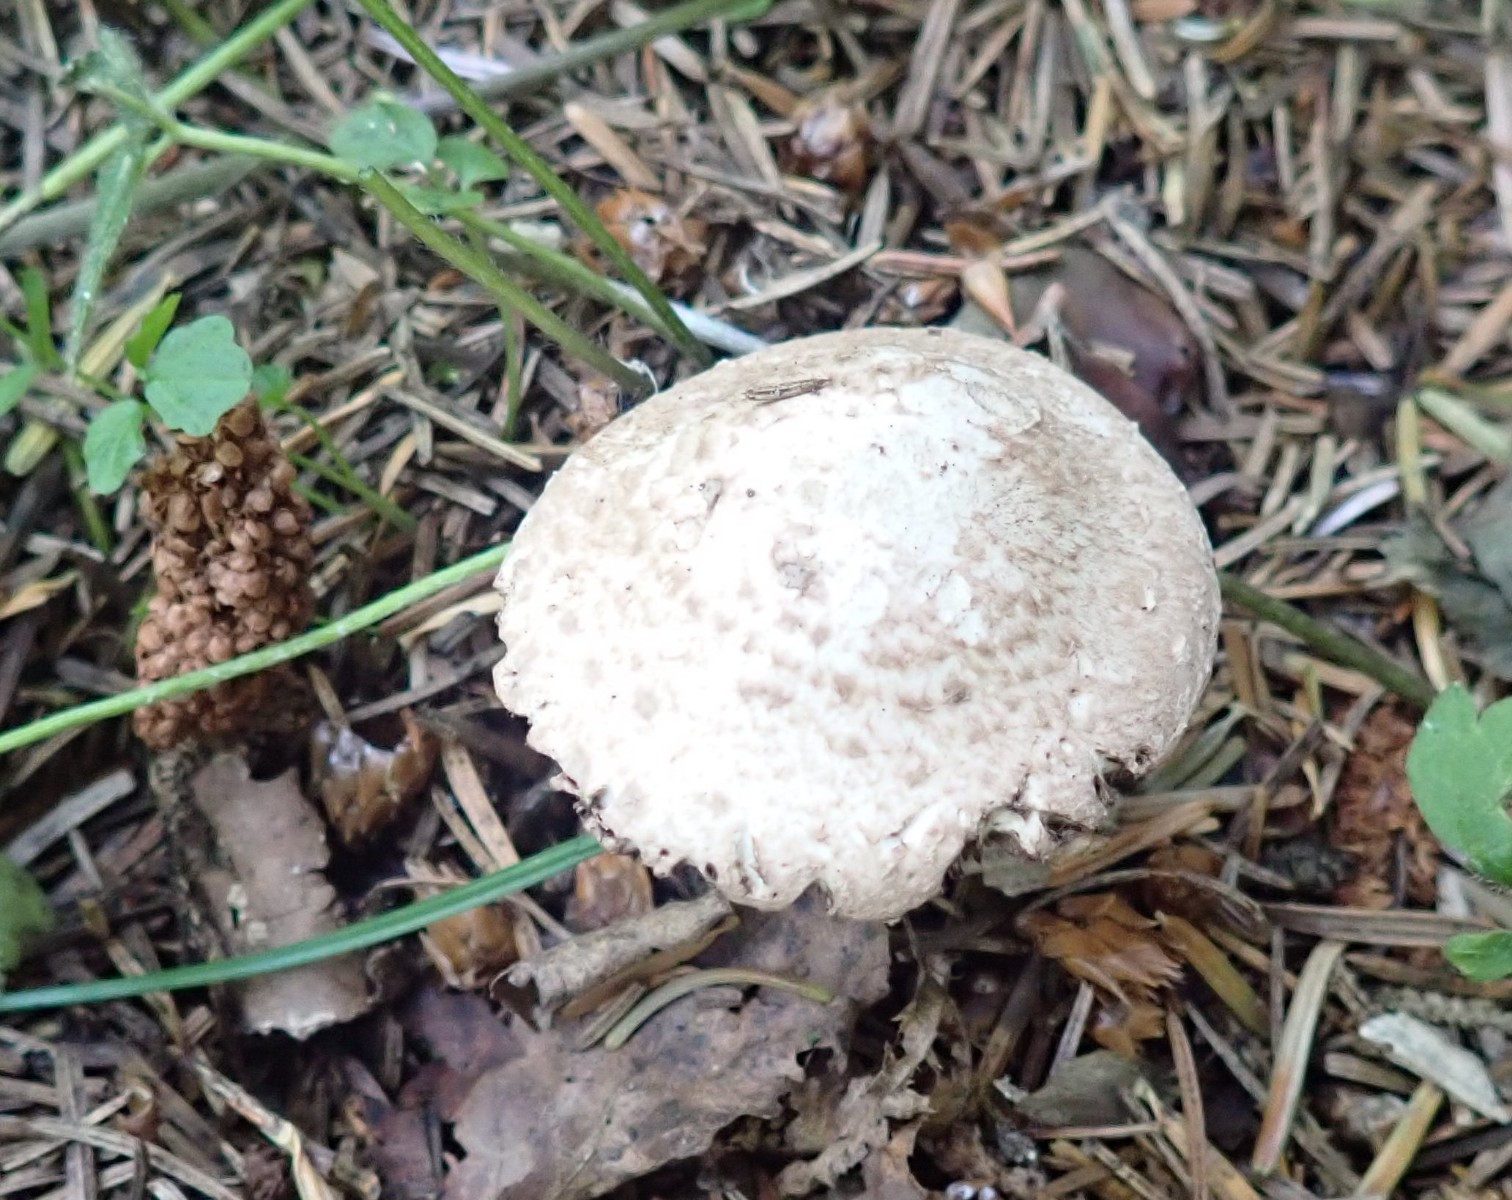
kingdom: Fungi
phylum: Basidiomycota
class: Agaricomycetes
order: Agaricales
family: Agaricaceae
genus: Agaricus
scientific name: Agaricus sylvaticus
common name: lille blod-champignon
